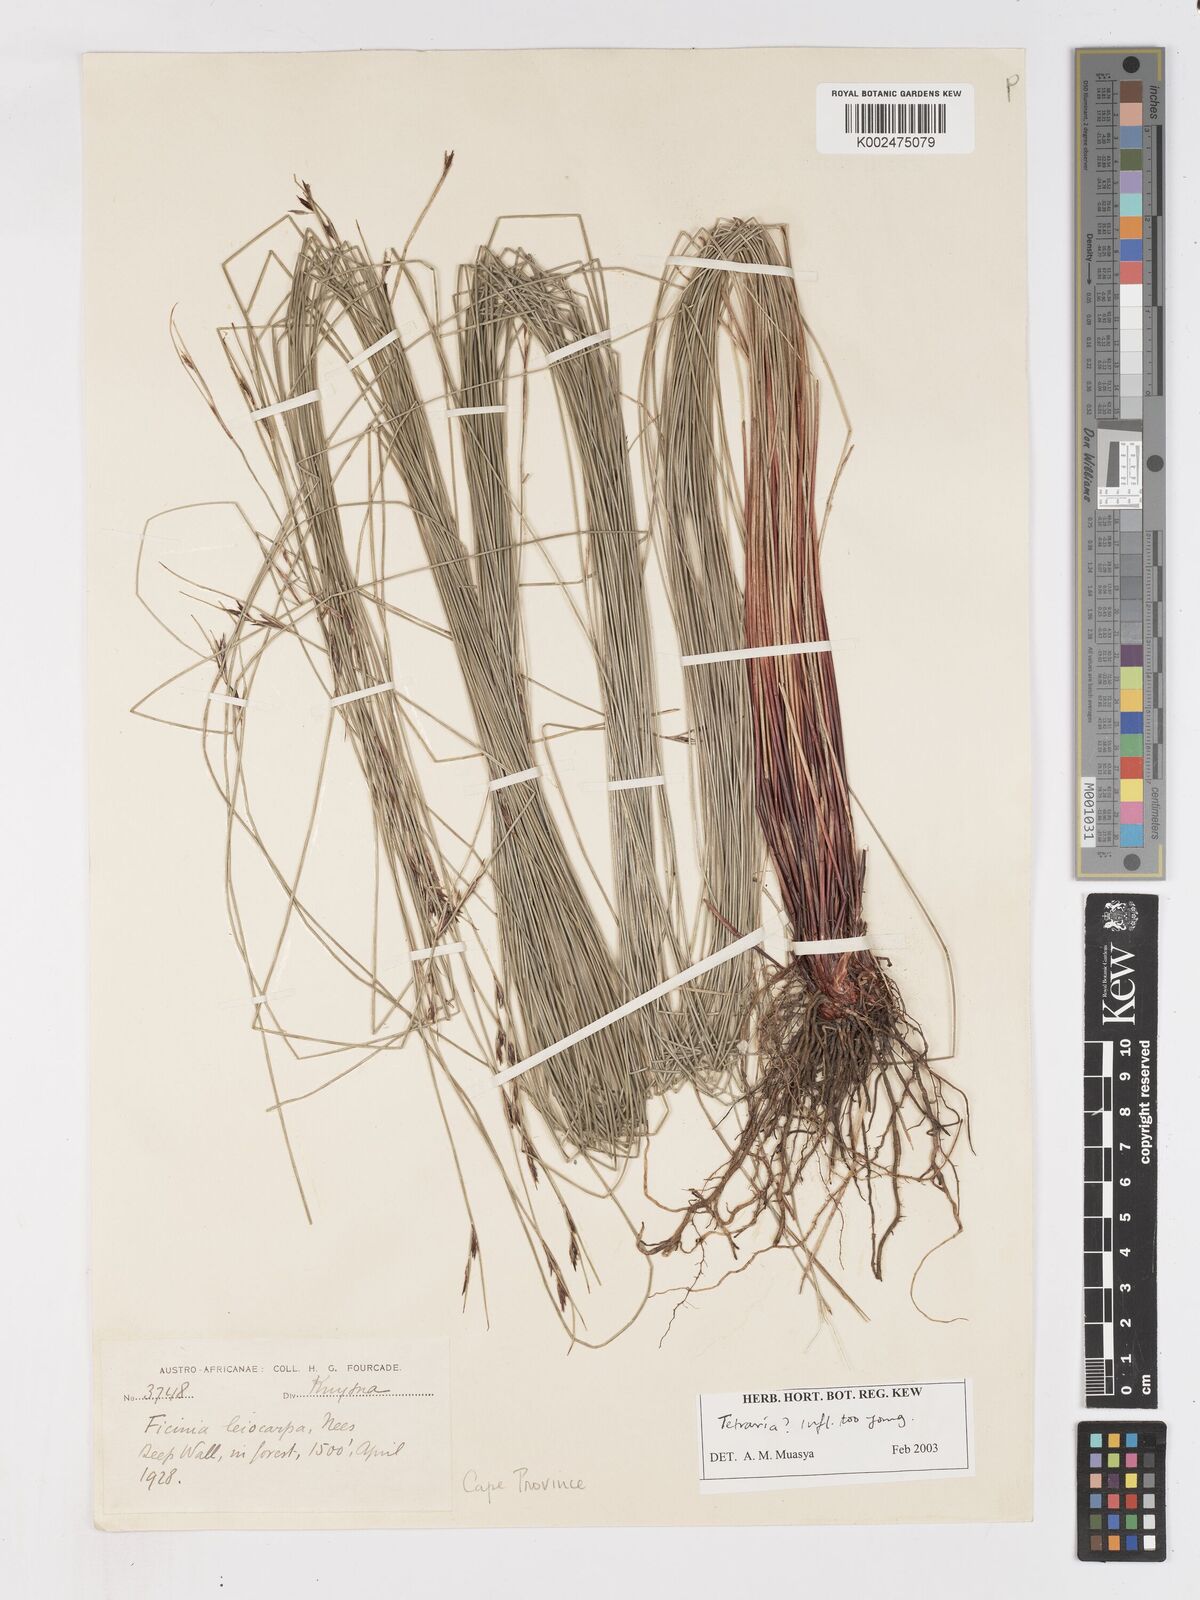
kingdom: Plantae
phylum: Tracheophyta
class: Liliopsida
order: Poales
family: Cyperaceae
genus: Ficinia
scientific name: Ficinia leiocarpa
